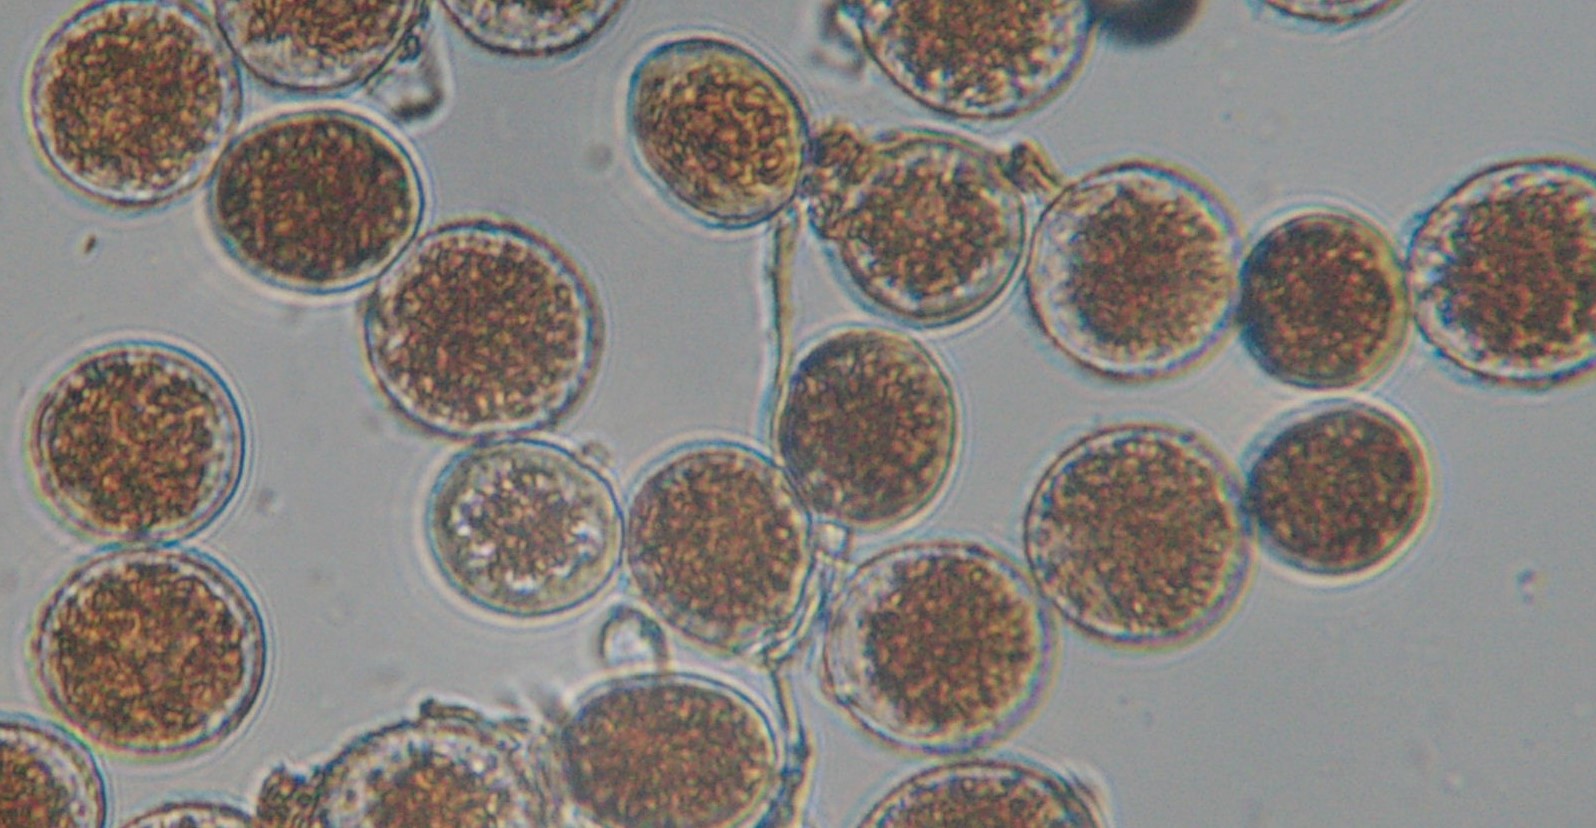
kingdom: Fungi
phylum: Basidiomycota
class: Pucciniomycetes
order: Pucciniales
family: Pucciniaceae
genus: Puccinia
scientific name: Puccinia porri
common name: Allium rust
